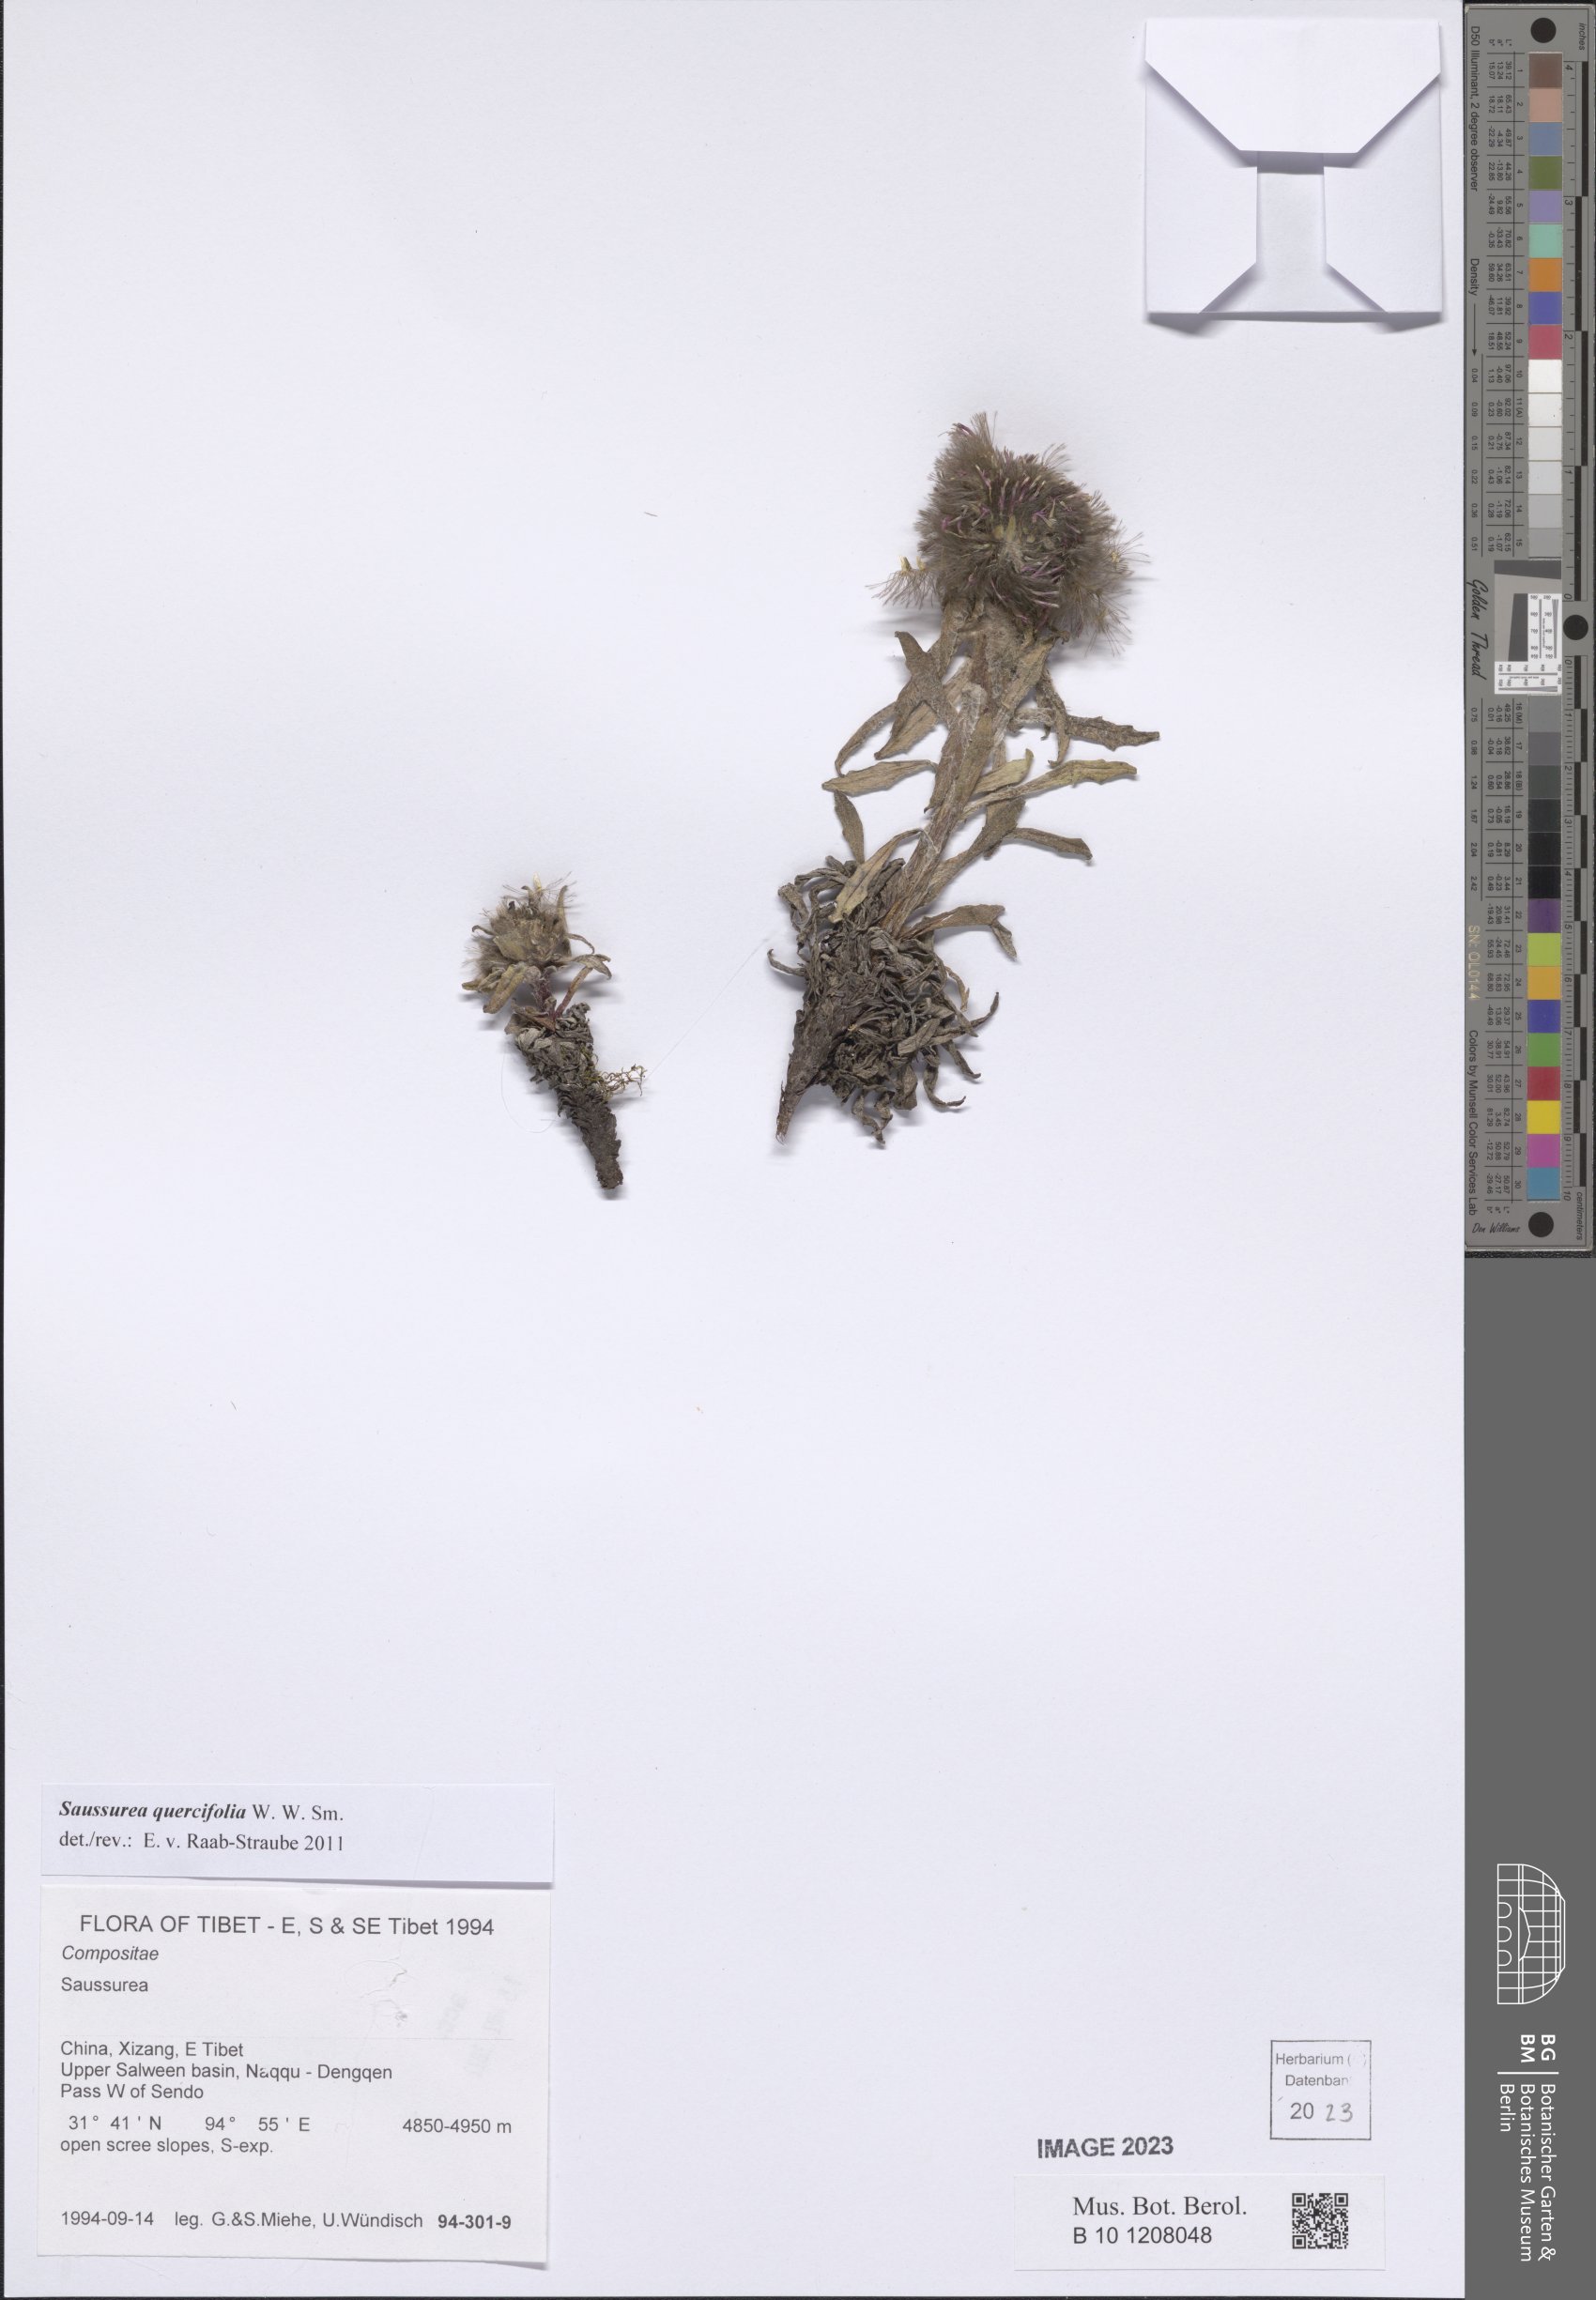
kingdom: Plantae
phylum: Tracheophyta
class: Magnoliopsida
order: Asterales
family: Asteraceae
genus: Saussurea
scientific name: Saussurea quercifolia
